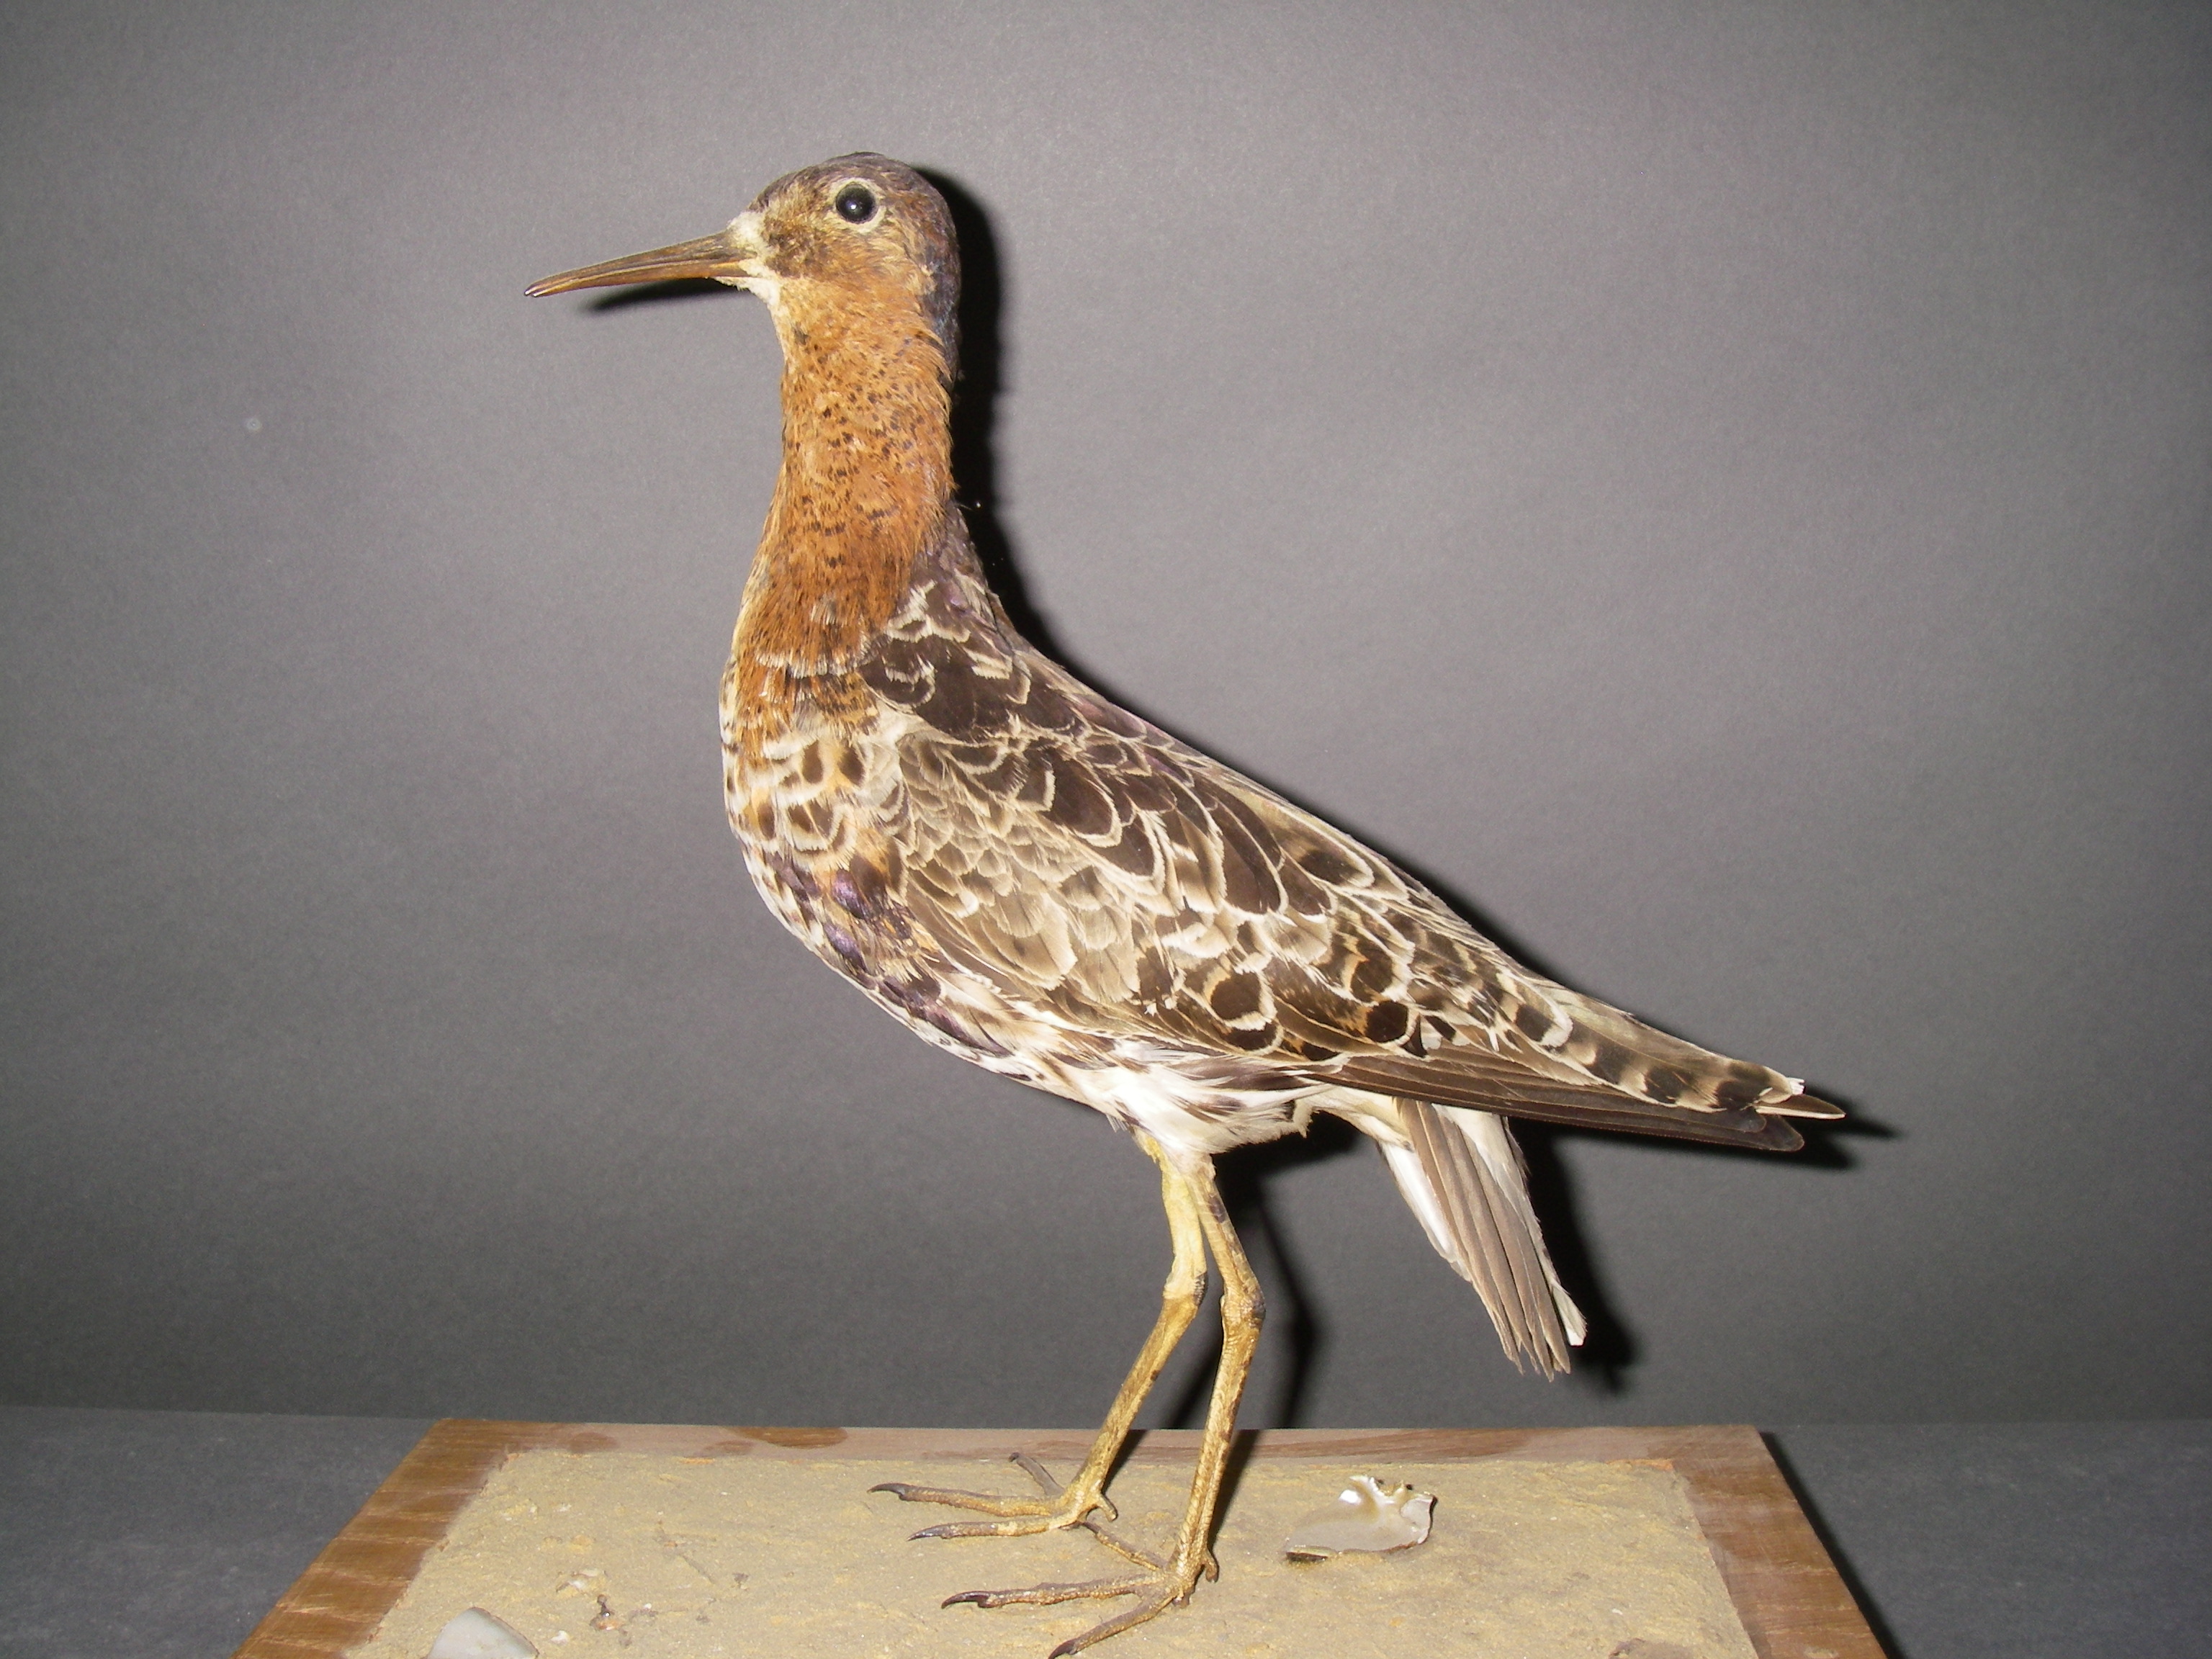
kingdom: Animalia
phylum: Chordata
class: Aves
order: Charadriiformes
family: Scolopacidae
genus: Calidris
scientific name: Calidris pugnax
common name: Ruff
